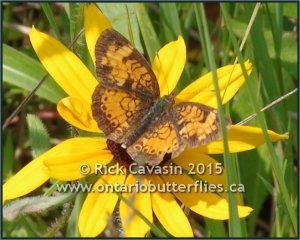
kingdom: Animalia
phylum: Arthropoda
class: Insecta
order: Lepidoptera
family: Nymphalidae
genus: Phyciodes
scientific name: Phyciodes tharos
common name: Northern Crescent
